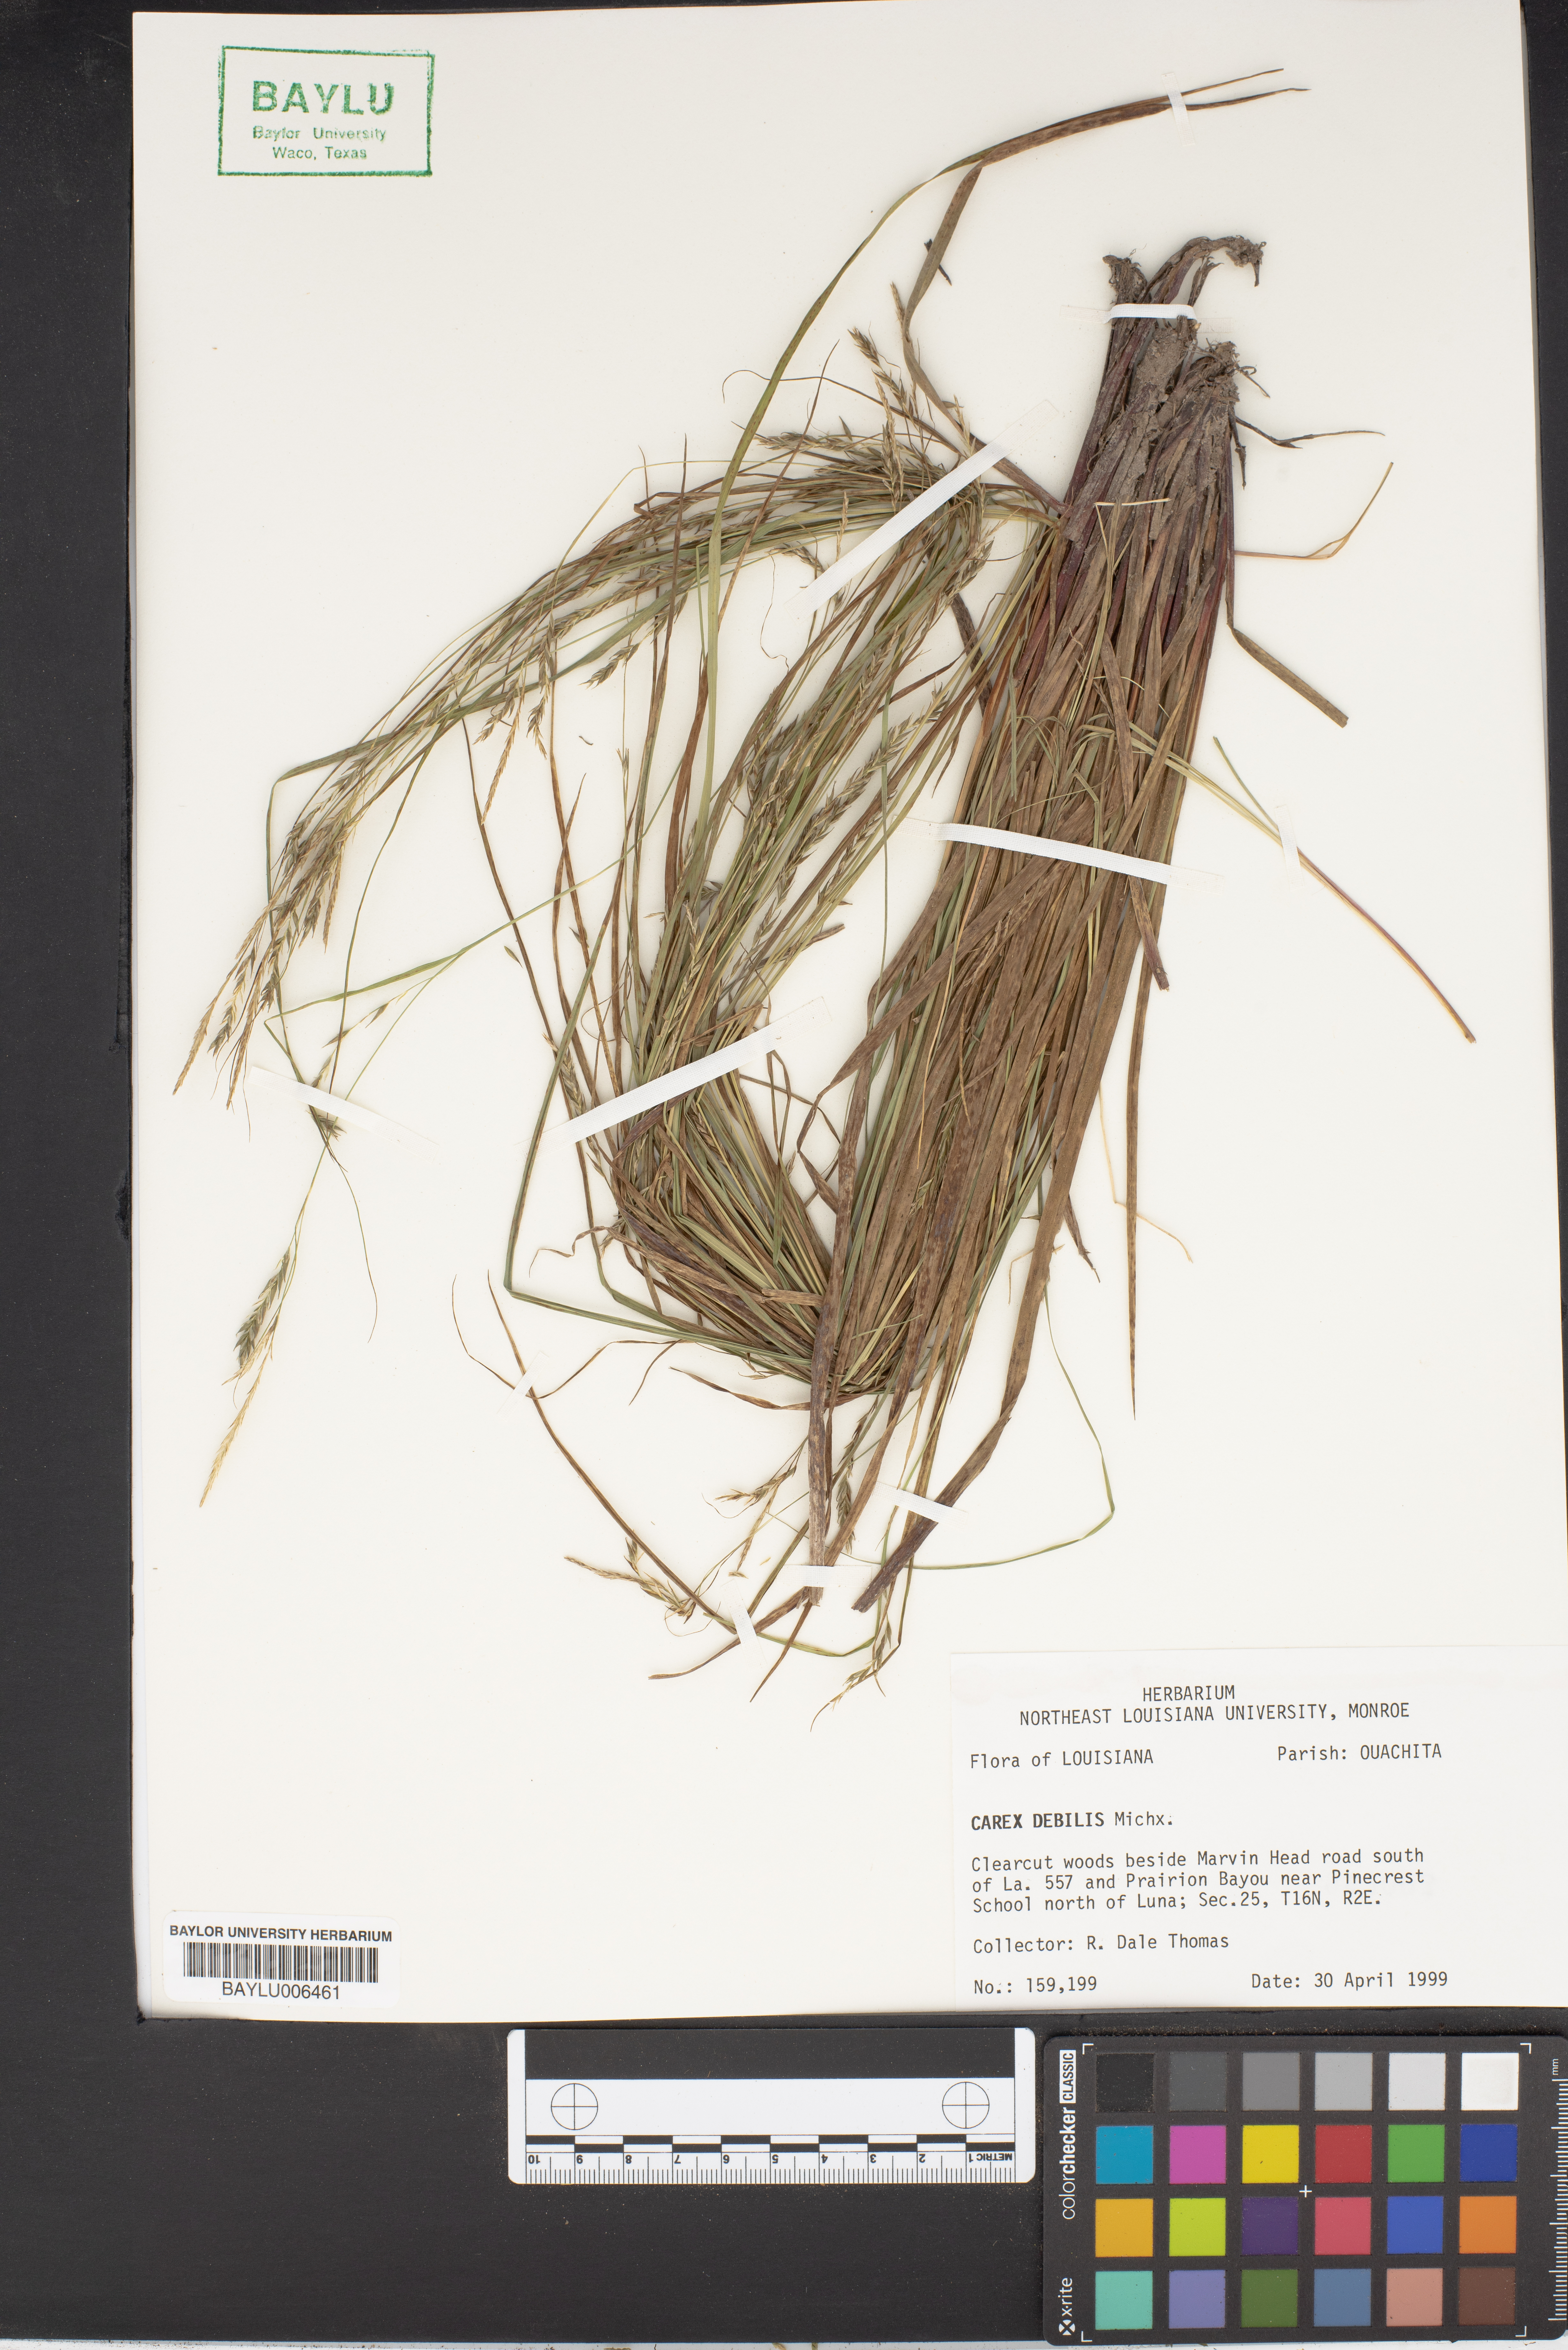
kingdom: Plantae
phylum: Tracheophyta
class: Liliopsida
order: Poales
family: Cyperaceae
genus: Carex
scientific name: Carex debilis
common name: White-edge sedge
